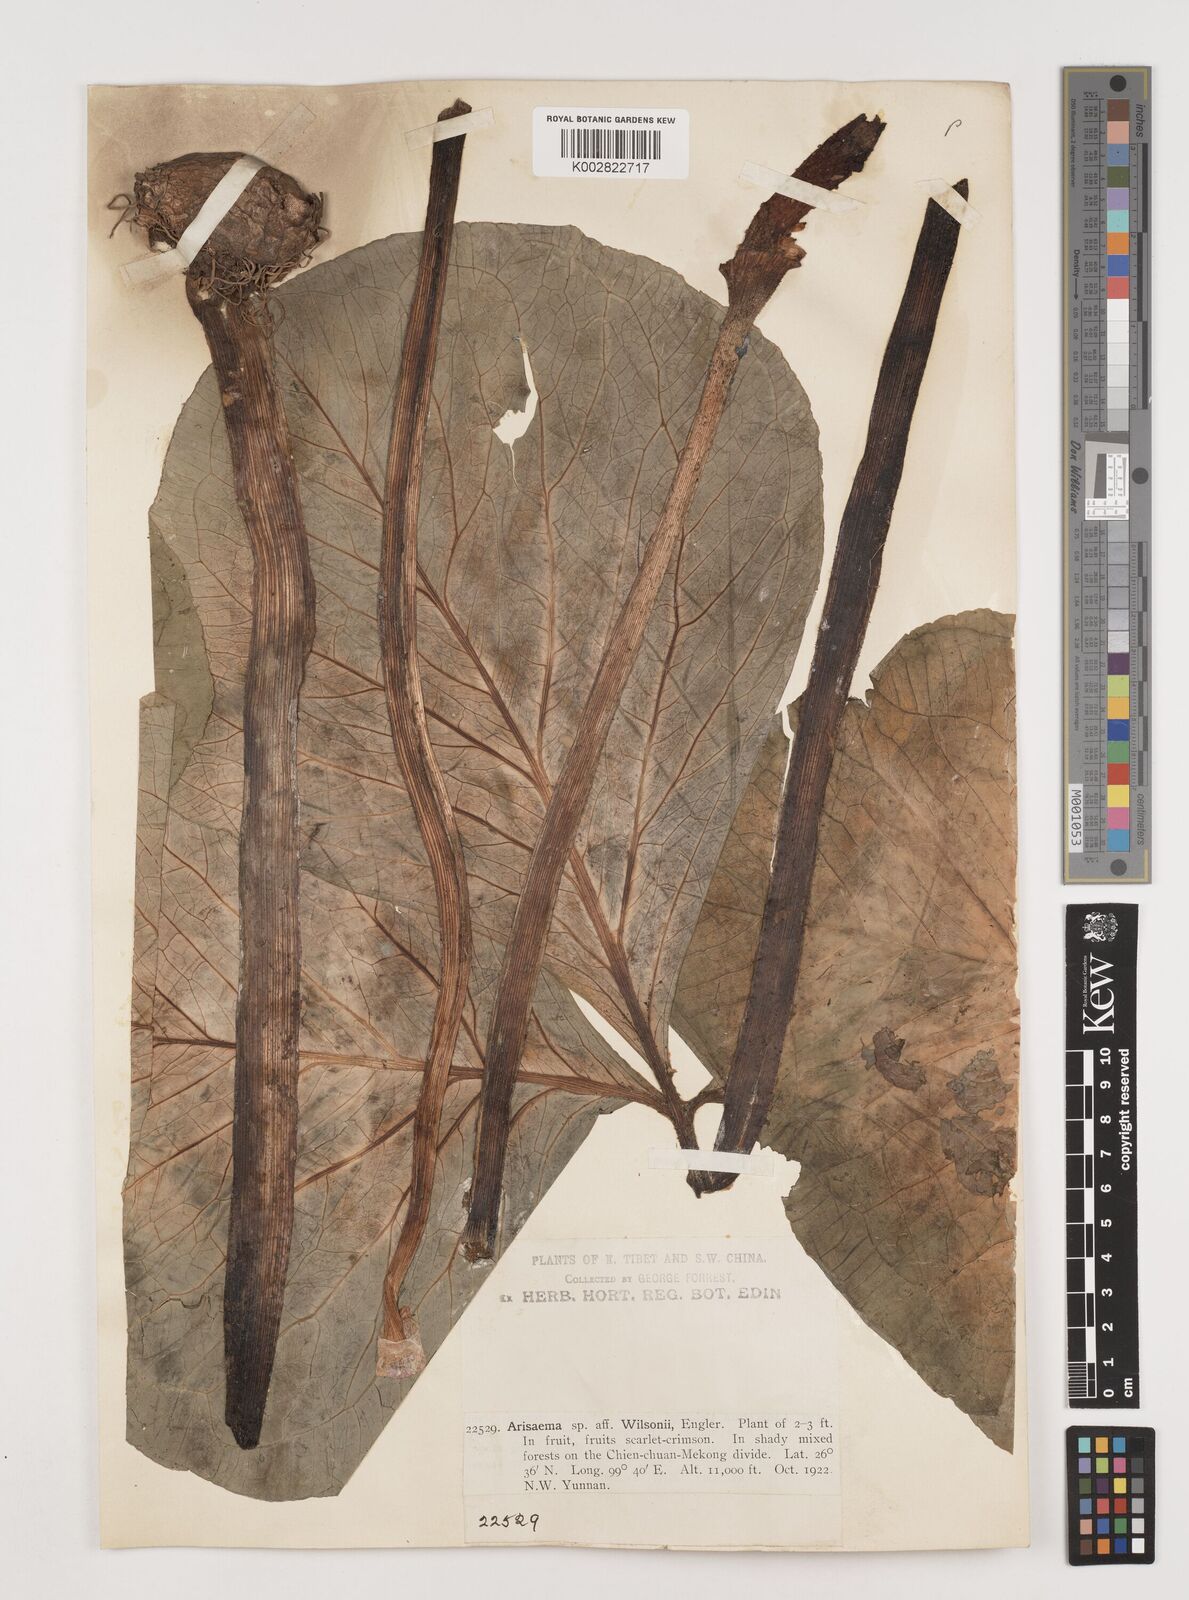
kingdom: Plantae
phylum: Tracheophyta
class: Liliopsida
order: Alismatales
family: Araceae
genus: Arisaema
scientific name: Arisaema wilsonii
